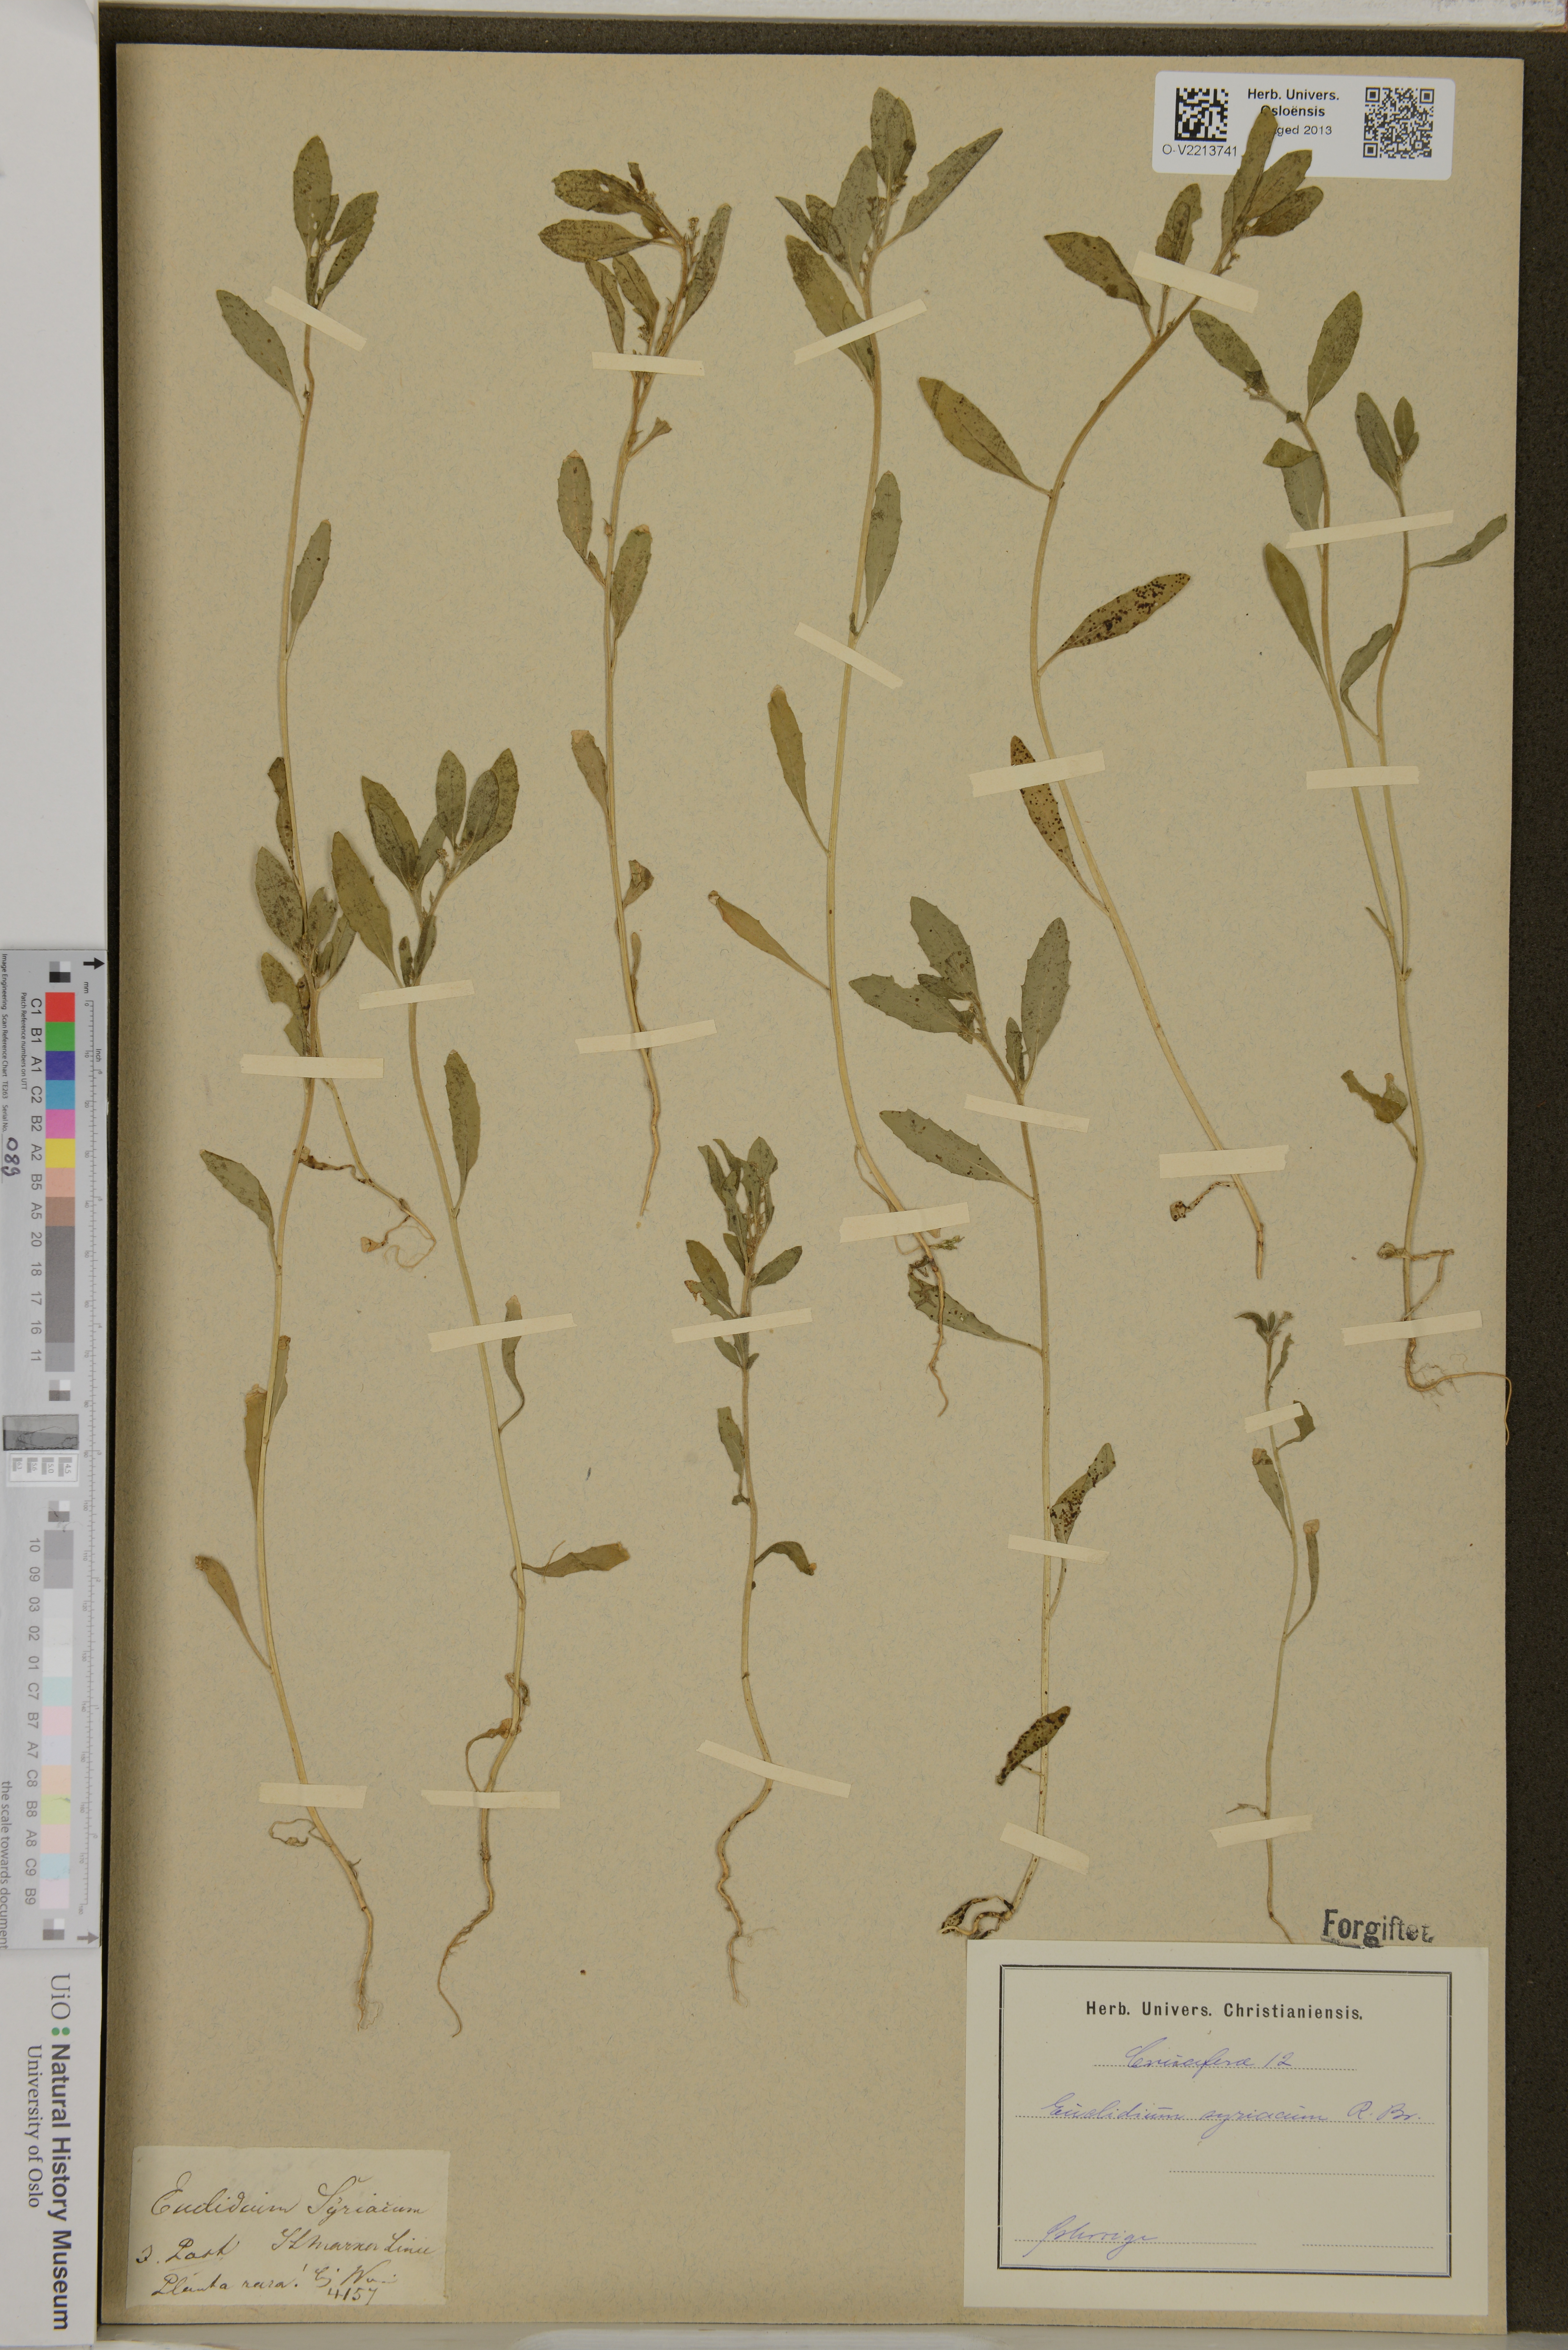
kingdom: Plantae
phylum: Tracheophyta
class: Magnoliopsida
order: Brassicales
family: Brassicaceae
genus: Euclidium
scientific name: Euclidium syriacum
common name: Syrian mustard
